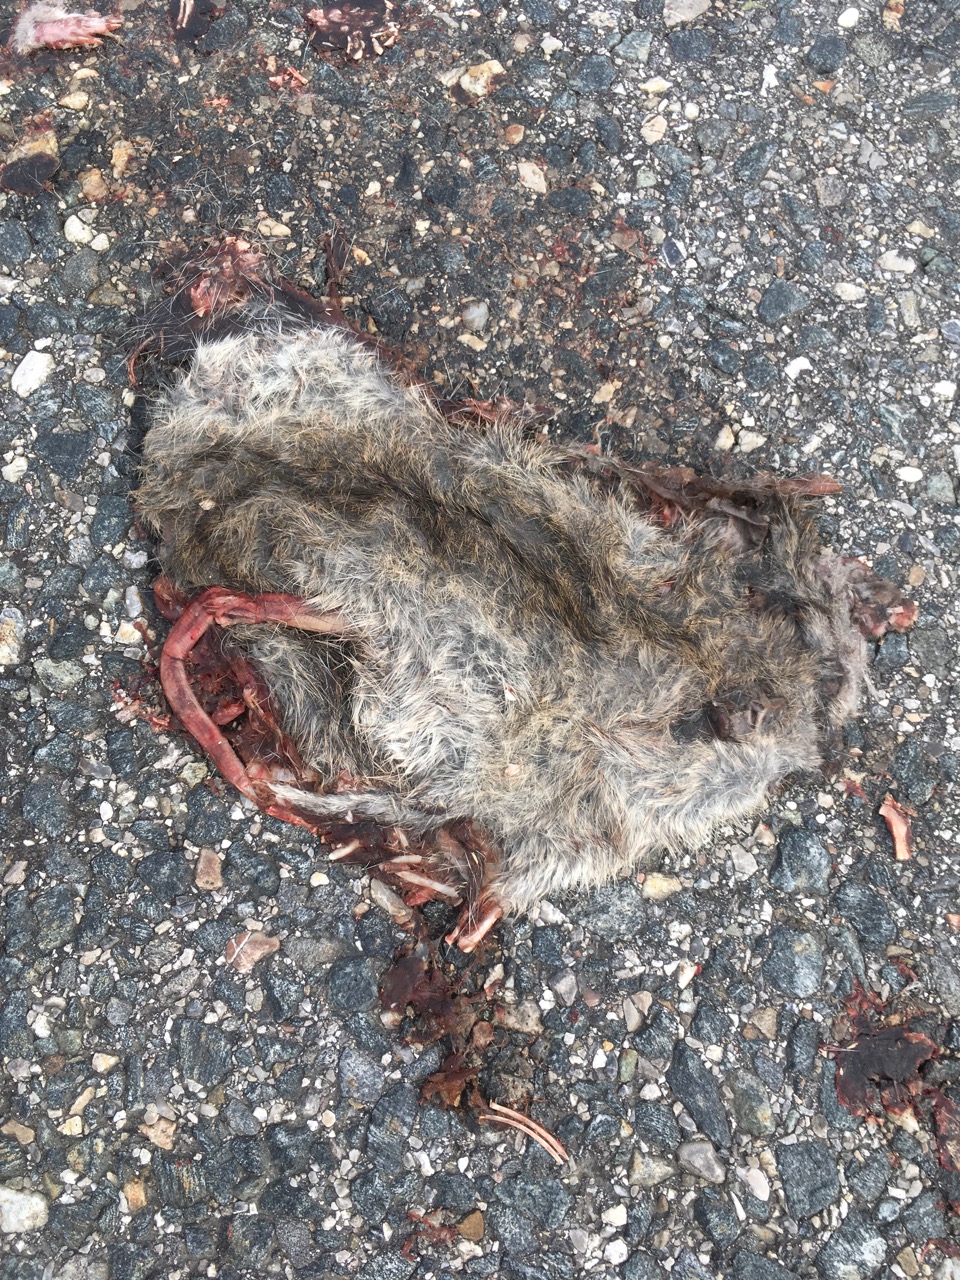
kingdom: Animalia
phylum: Chordata
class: Mammalia
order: Rodentia
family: Muridae
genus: Rattus
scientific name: Rattus
